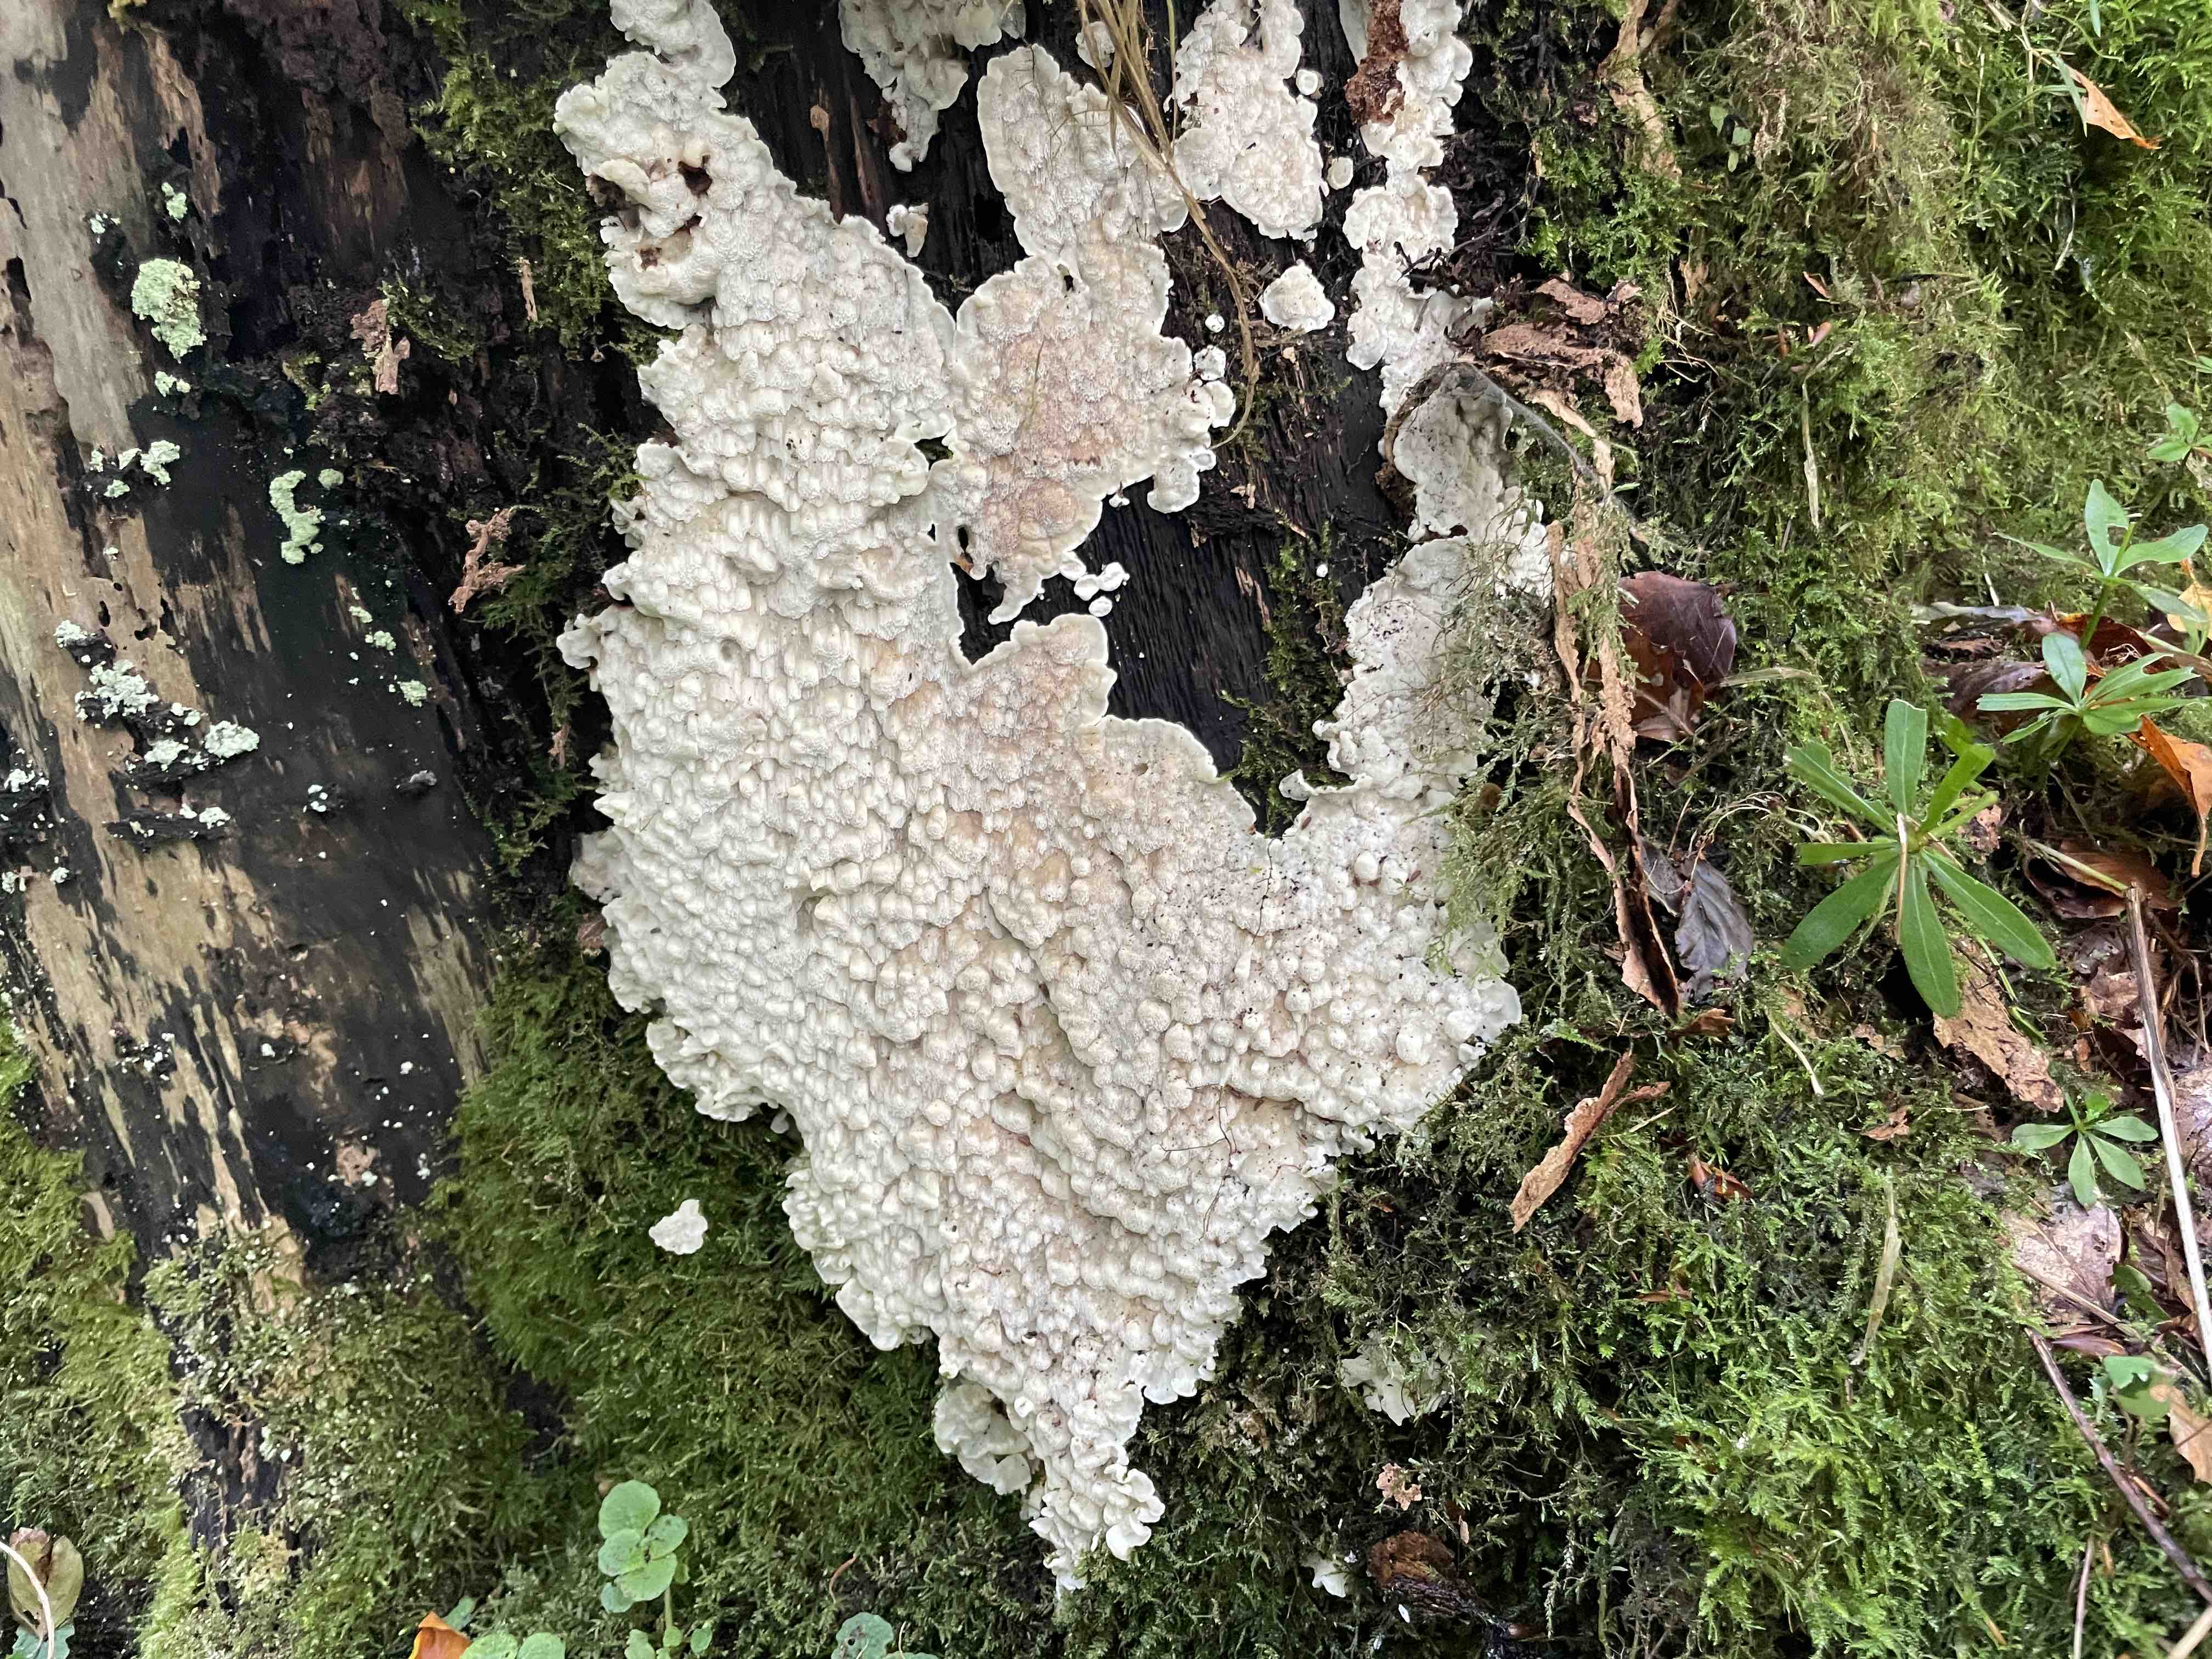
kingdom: Fungi
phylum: Basidiomycota
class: Agaricomycetes
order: Polyporales
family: Meruliaceae
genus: Physisporinus
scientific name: Physisporinus vitreus
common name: mastesvamp
